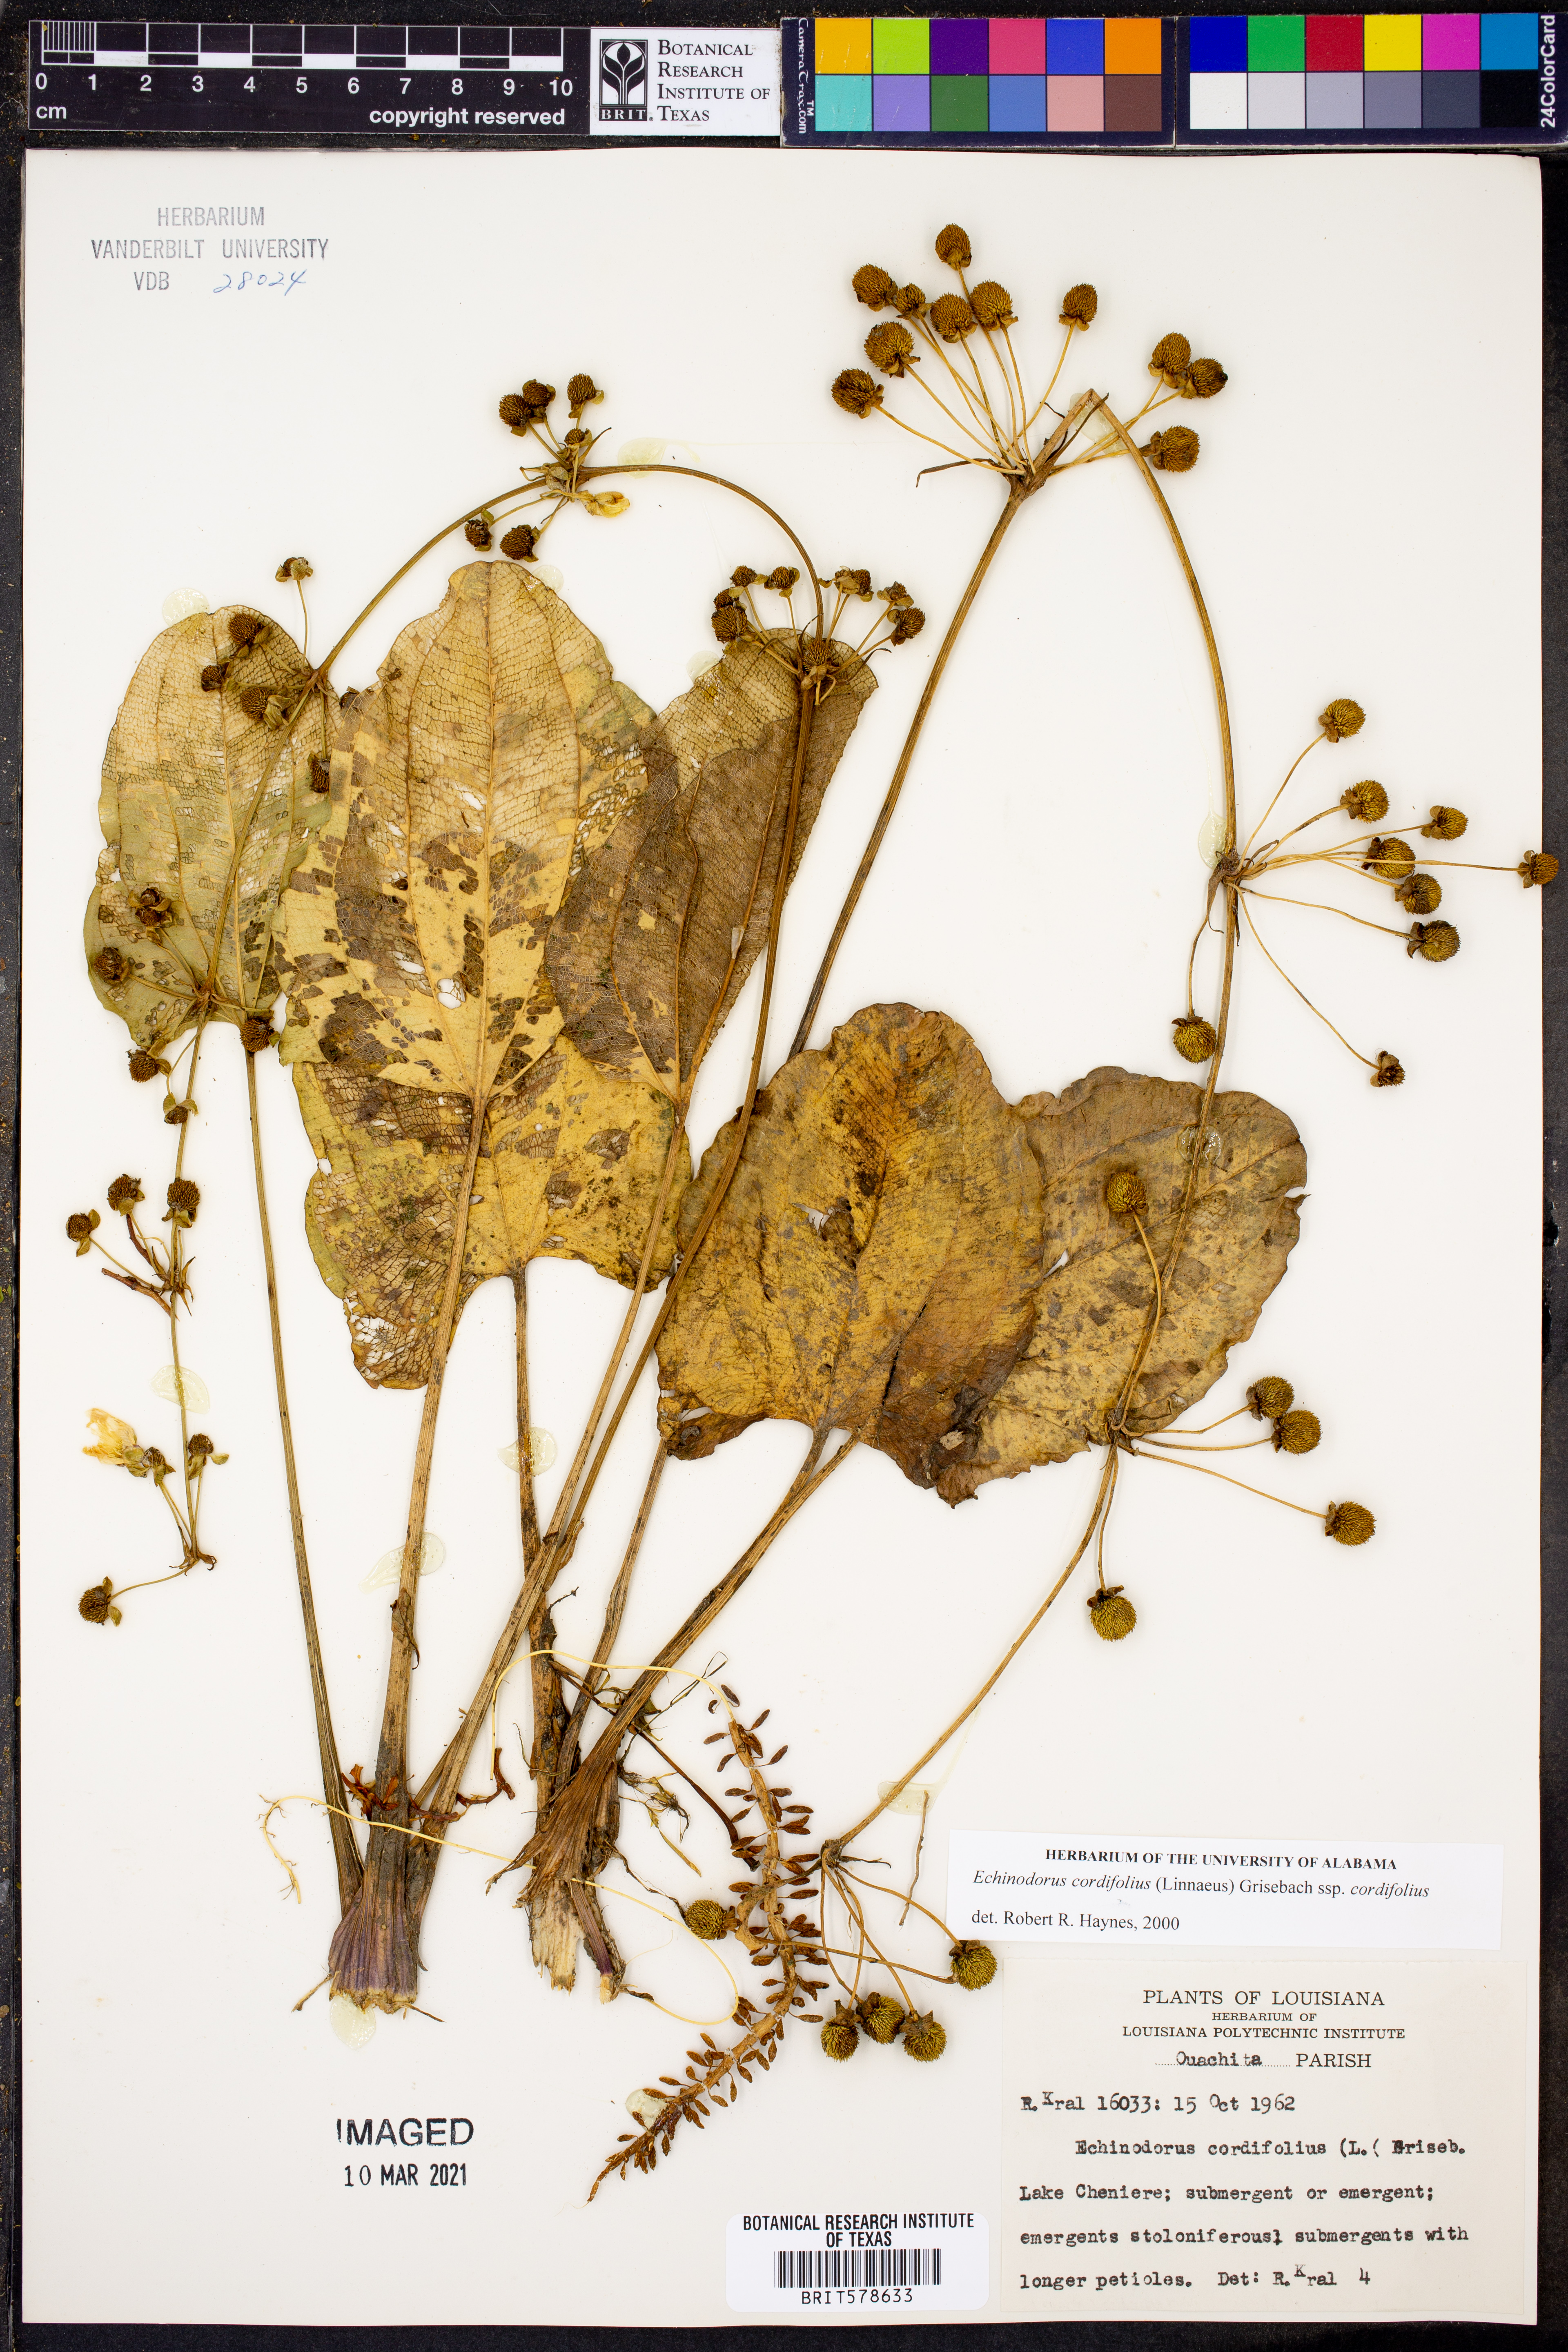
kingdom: Plantae
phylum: Tracheophyta
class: Liliopsida
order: Alismatales
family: Alismataceae
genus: Aquarius
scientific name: Aquarius cordifolius
